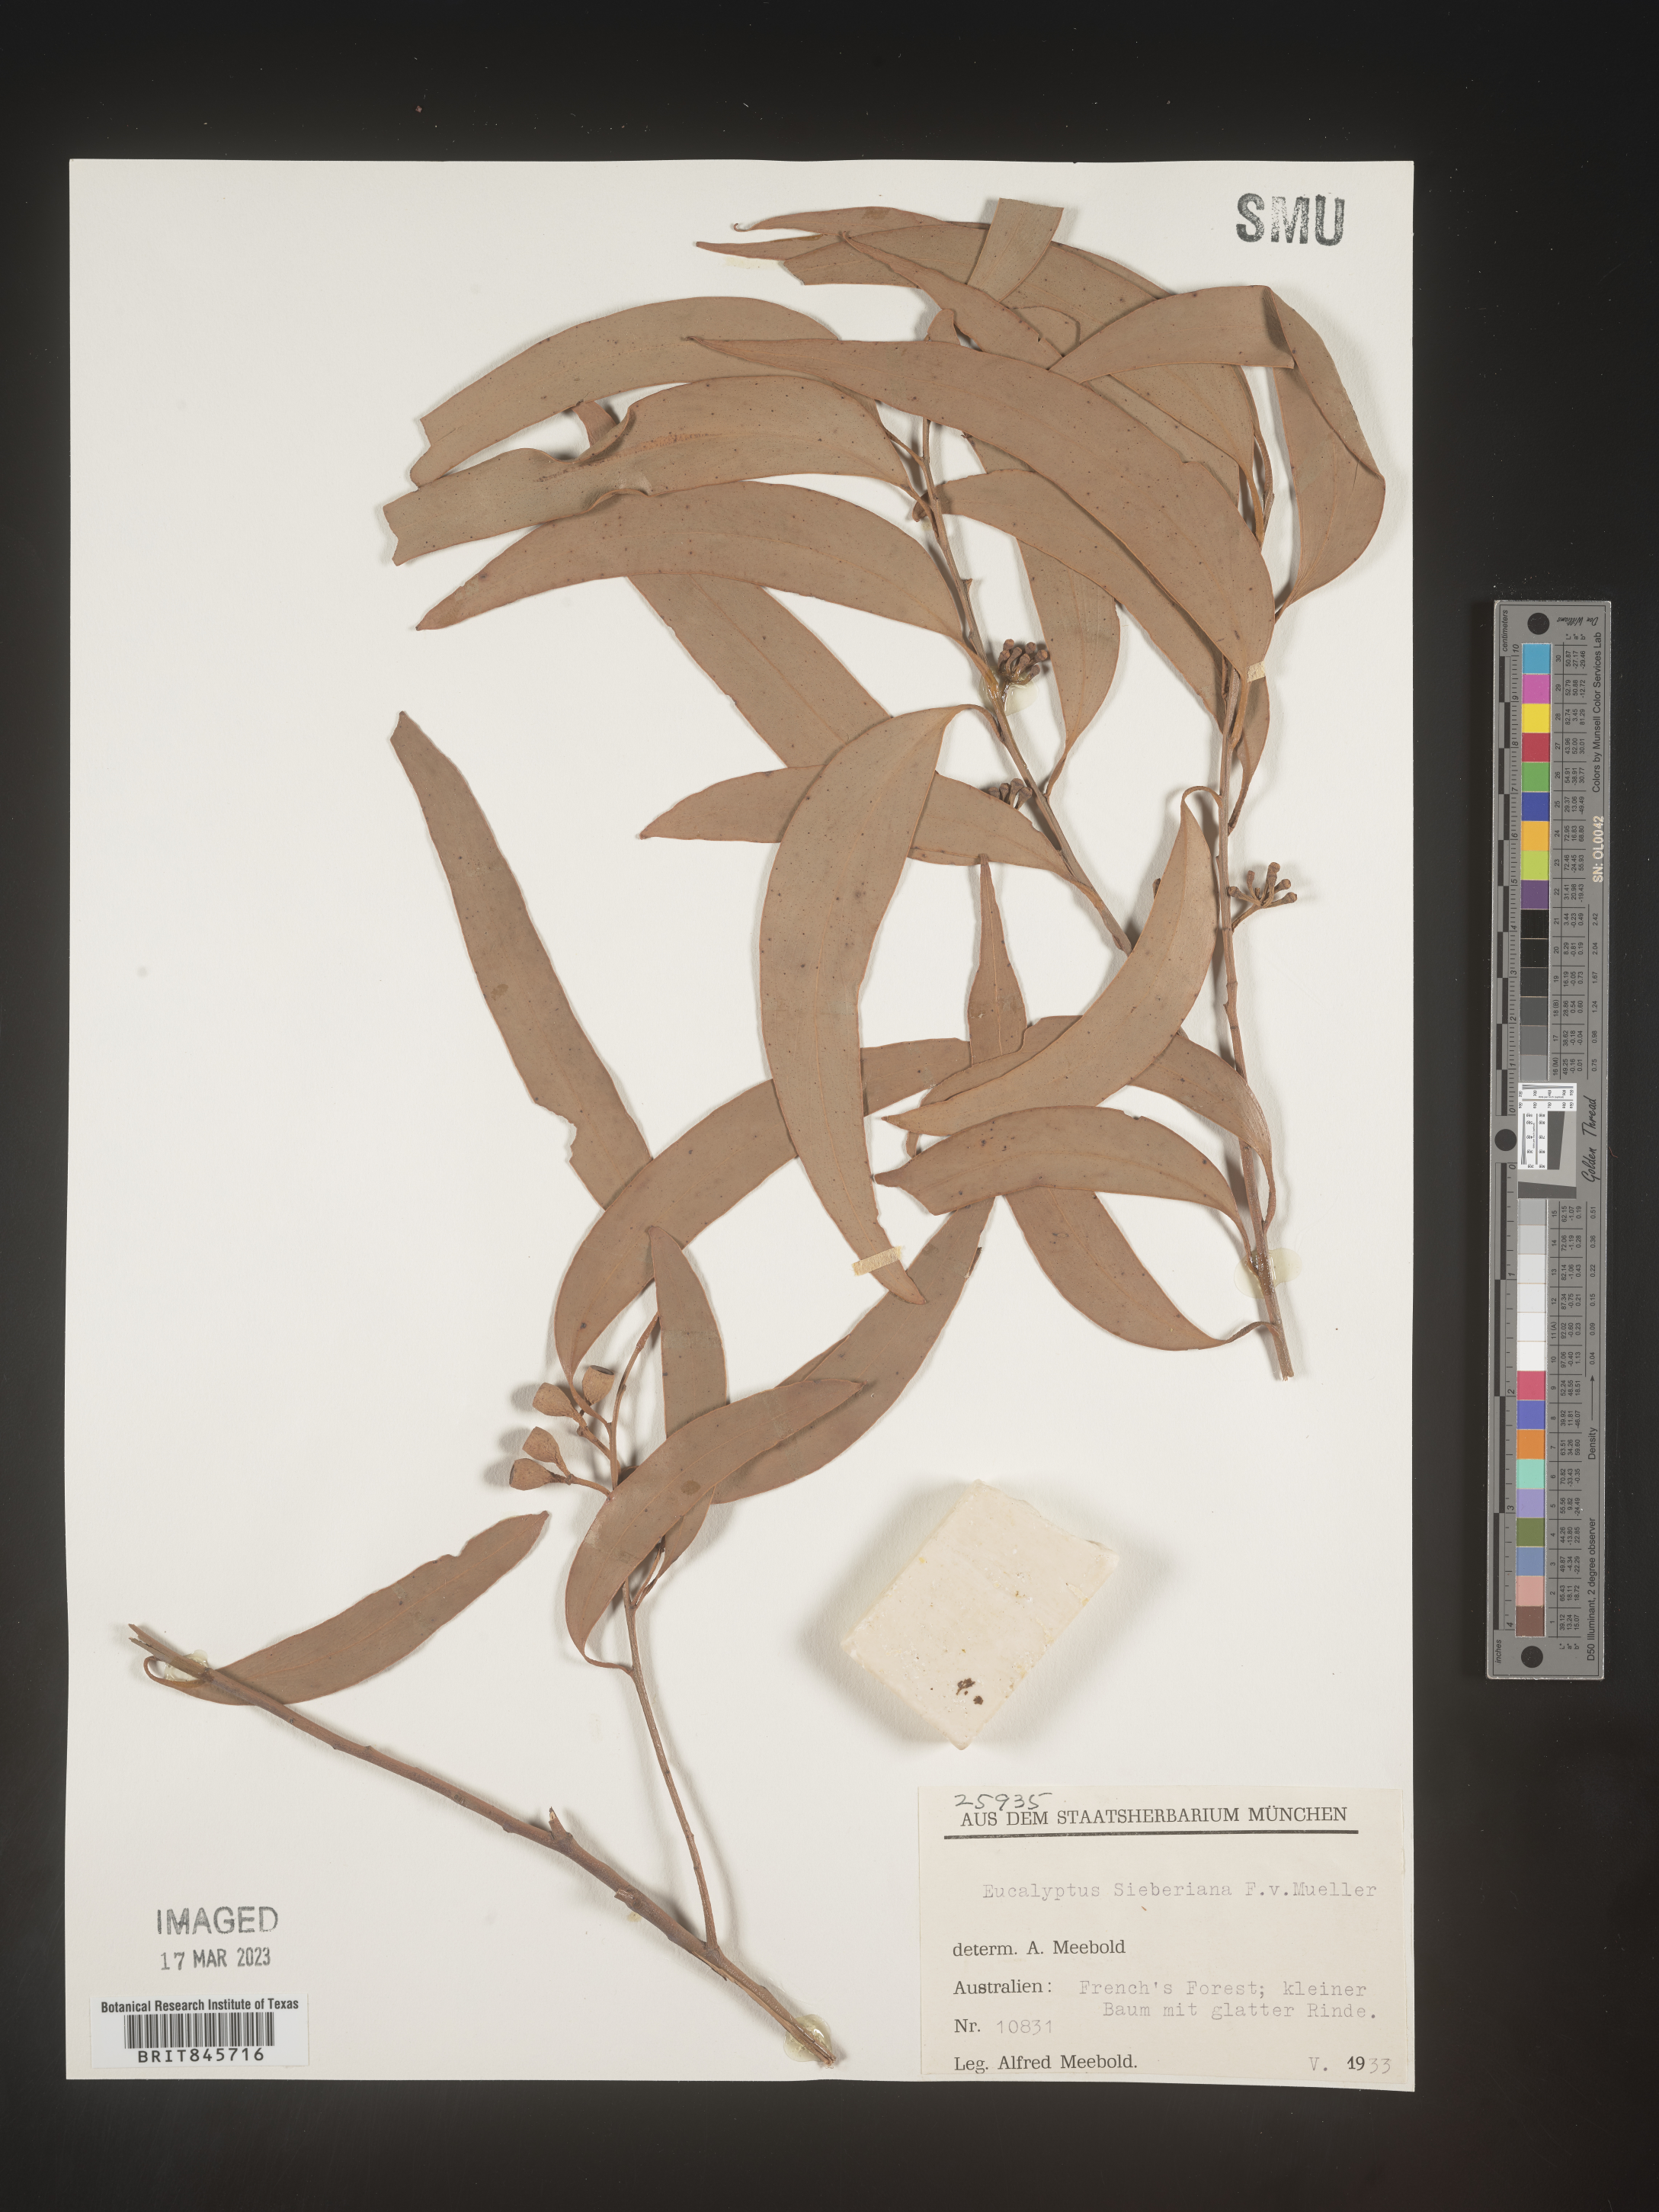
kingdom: Plantae
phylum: Tracheophyta
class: Magnoliopsida
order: Myrtales
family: Myrtaceae
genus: Eucalyptus
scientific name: Eucalyptus
